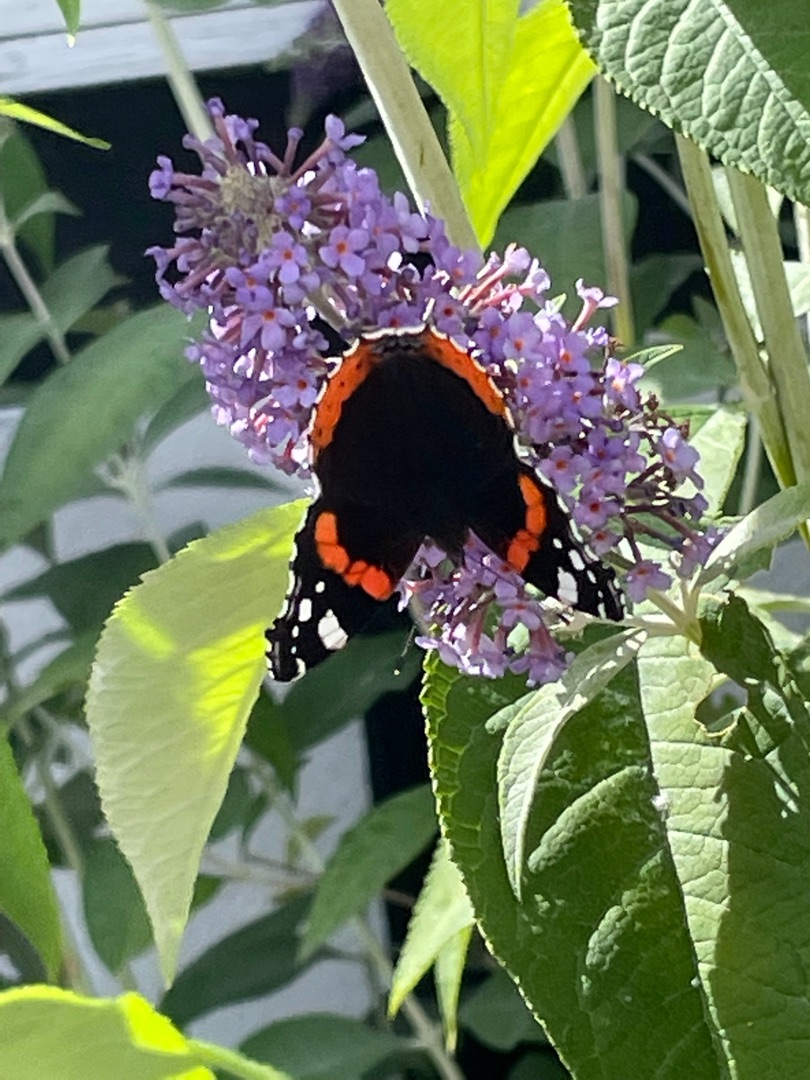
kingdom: Animalia
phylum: Arthropoda
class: Insecta
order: Lepidoptera
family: Nymphalidae
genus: Vanessa
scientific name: Vanessa atalanta
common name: Admiral
